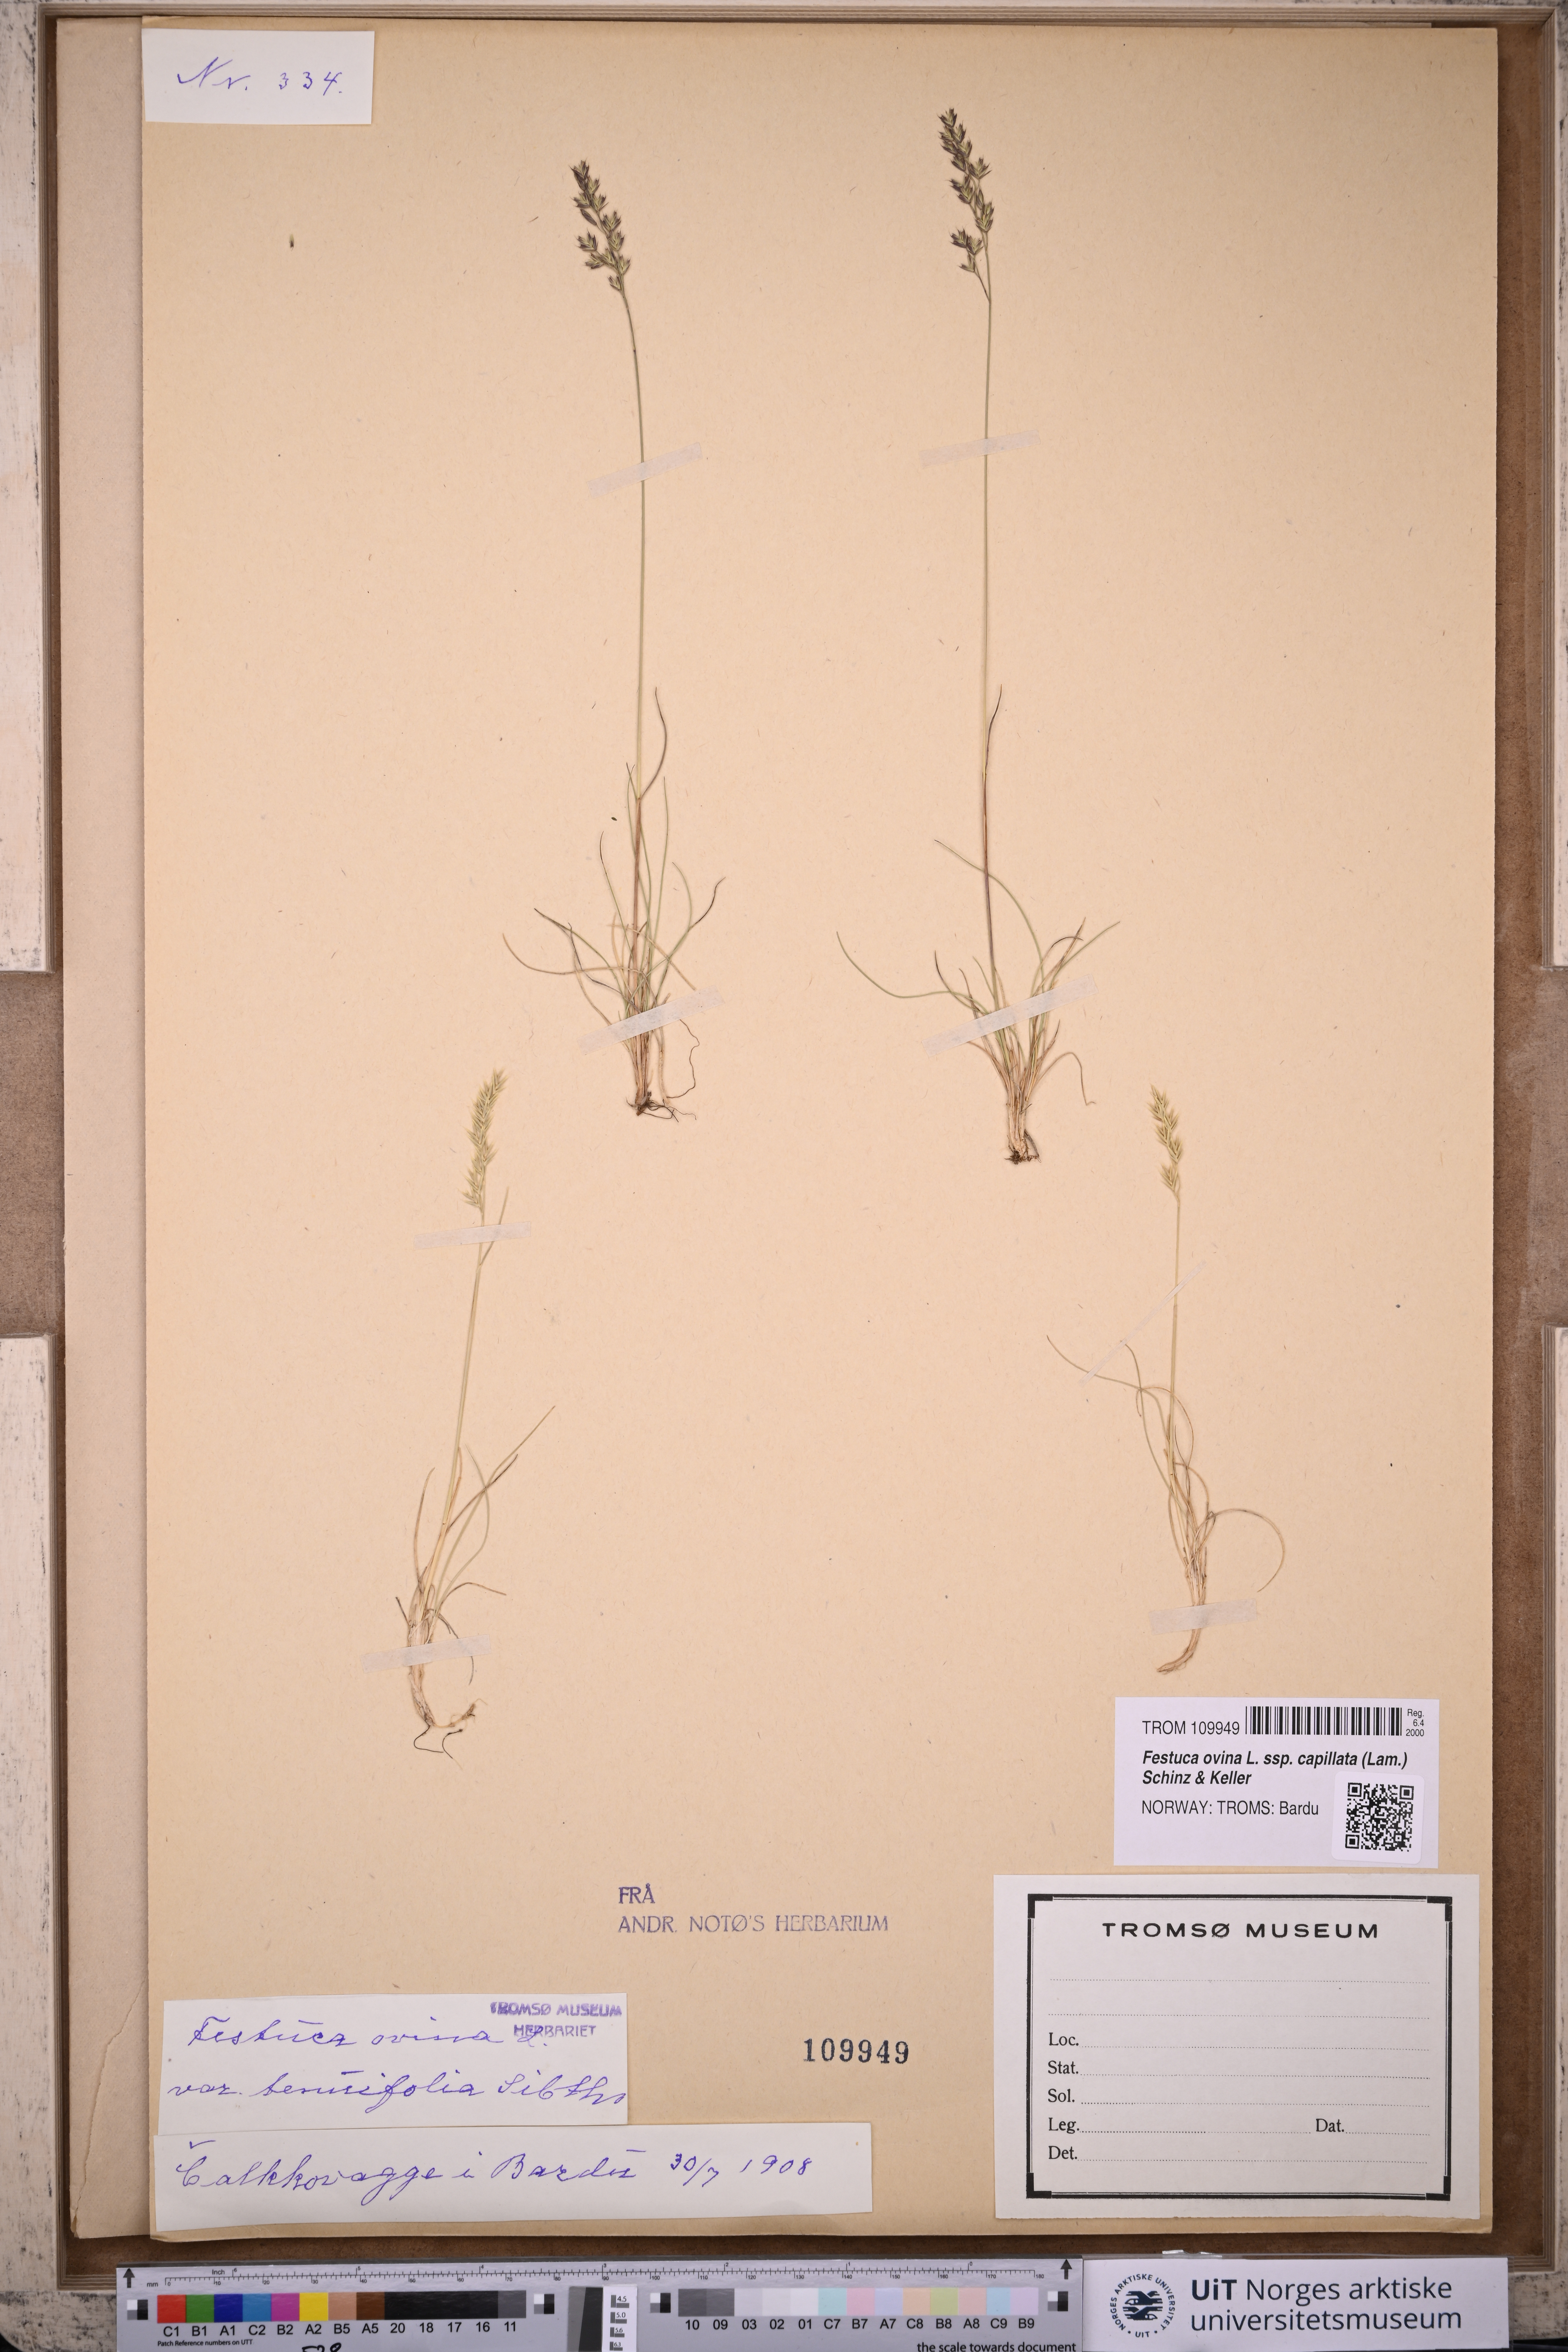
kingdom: Plantae
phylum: Tracheophyta
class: Liliopsida
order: Poales
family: Poaceae
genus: Festuca
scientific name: Festuca filiformis
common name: Fine-leaved sheep's-fescue
